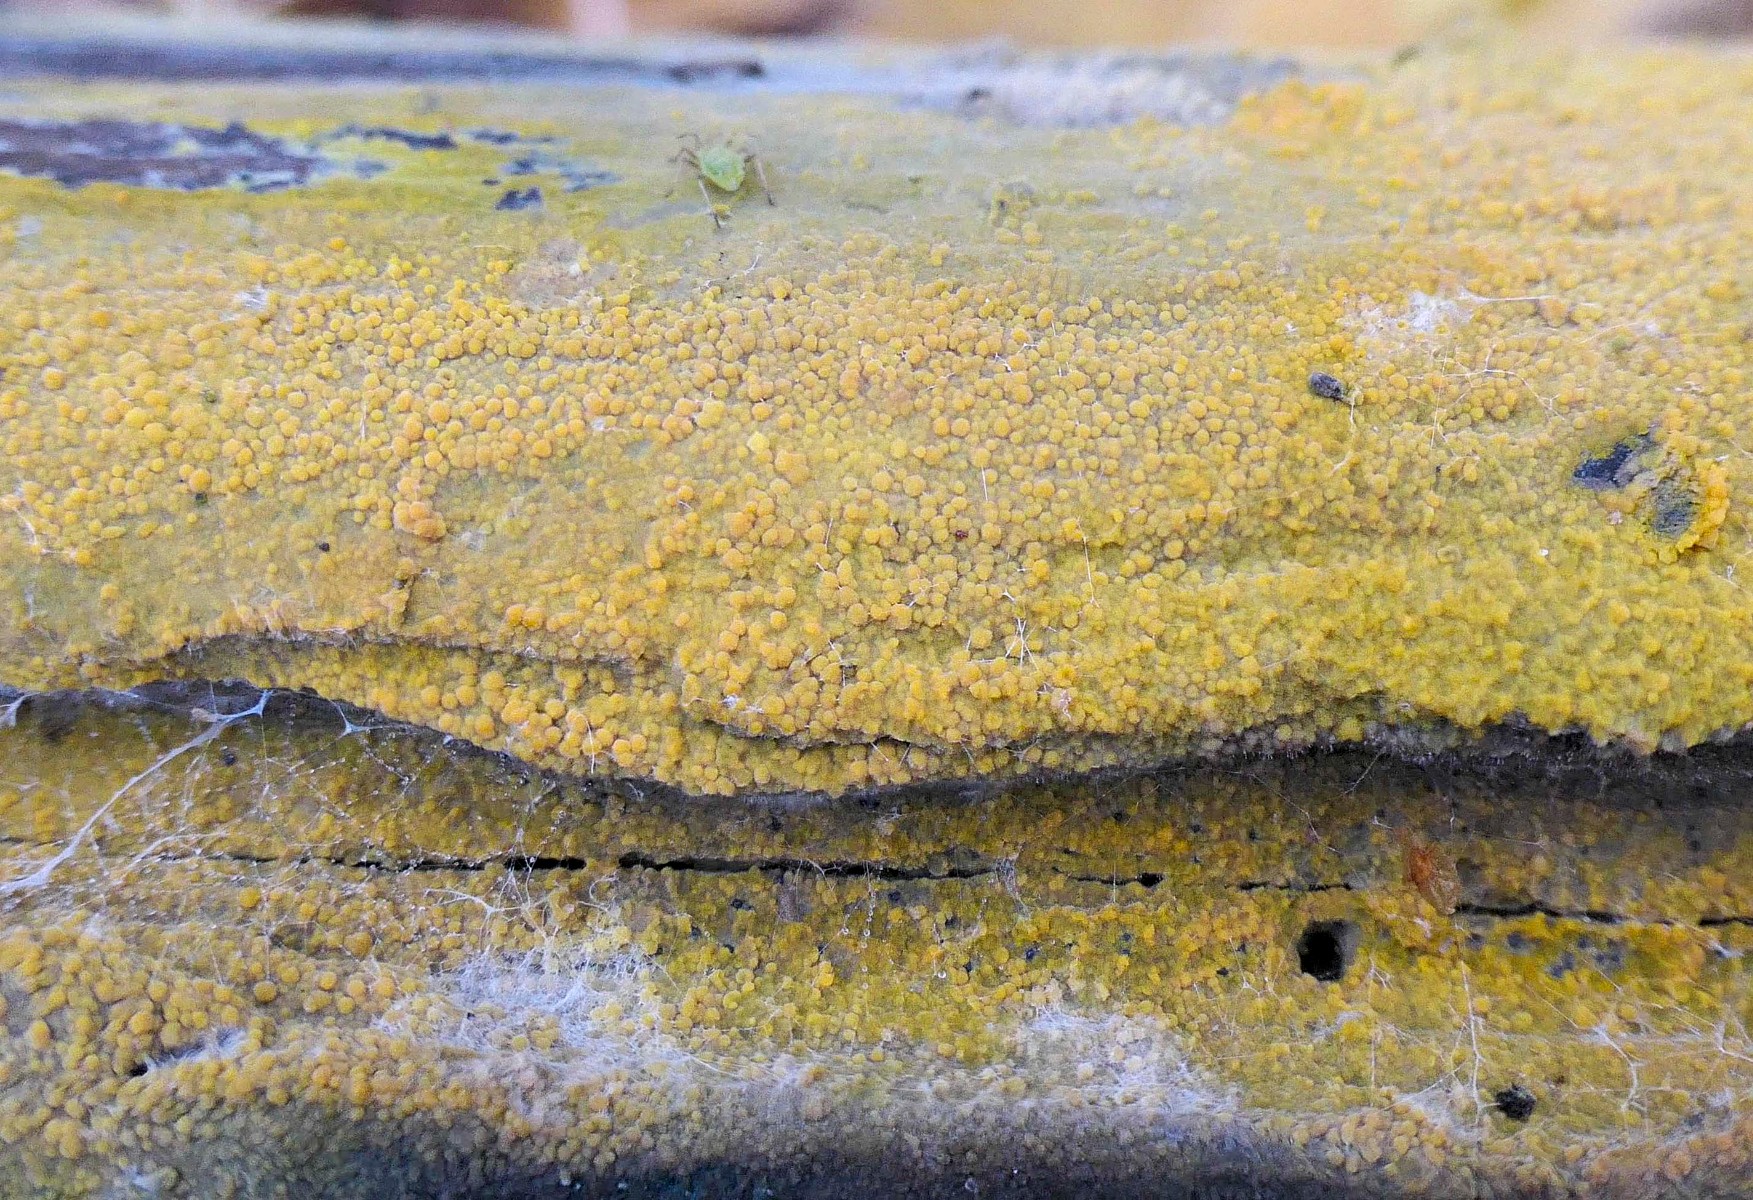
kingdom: Fungi
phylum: Basidiomycota
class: Agaricomycetes
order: Polyporales
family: Meruliaceae
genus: Phlebiodontia
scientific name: Phlebiodontia subochracea
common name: svovl-åresvamp
